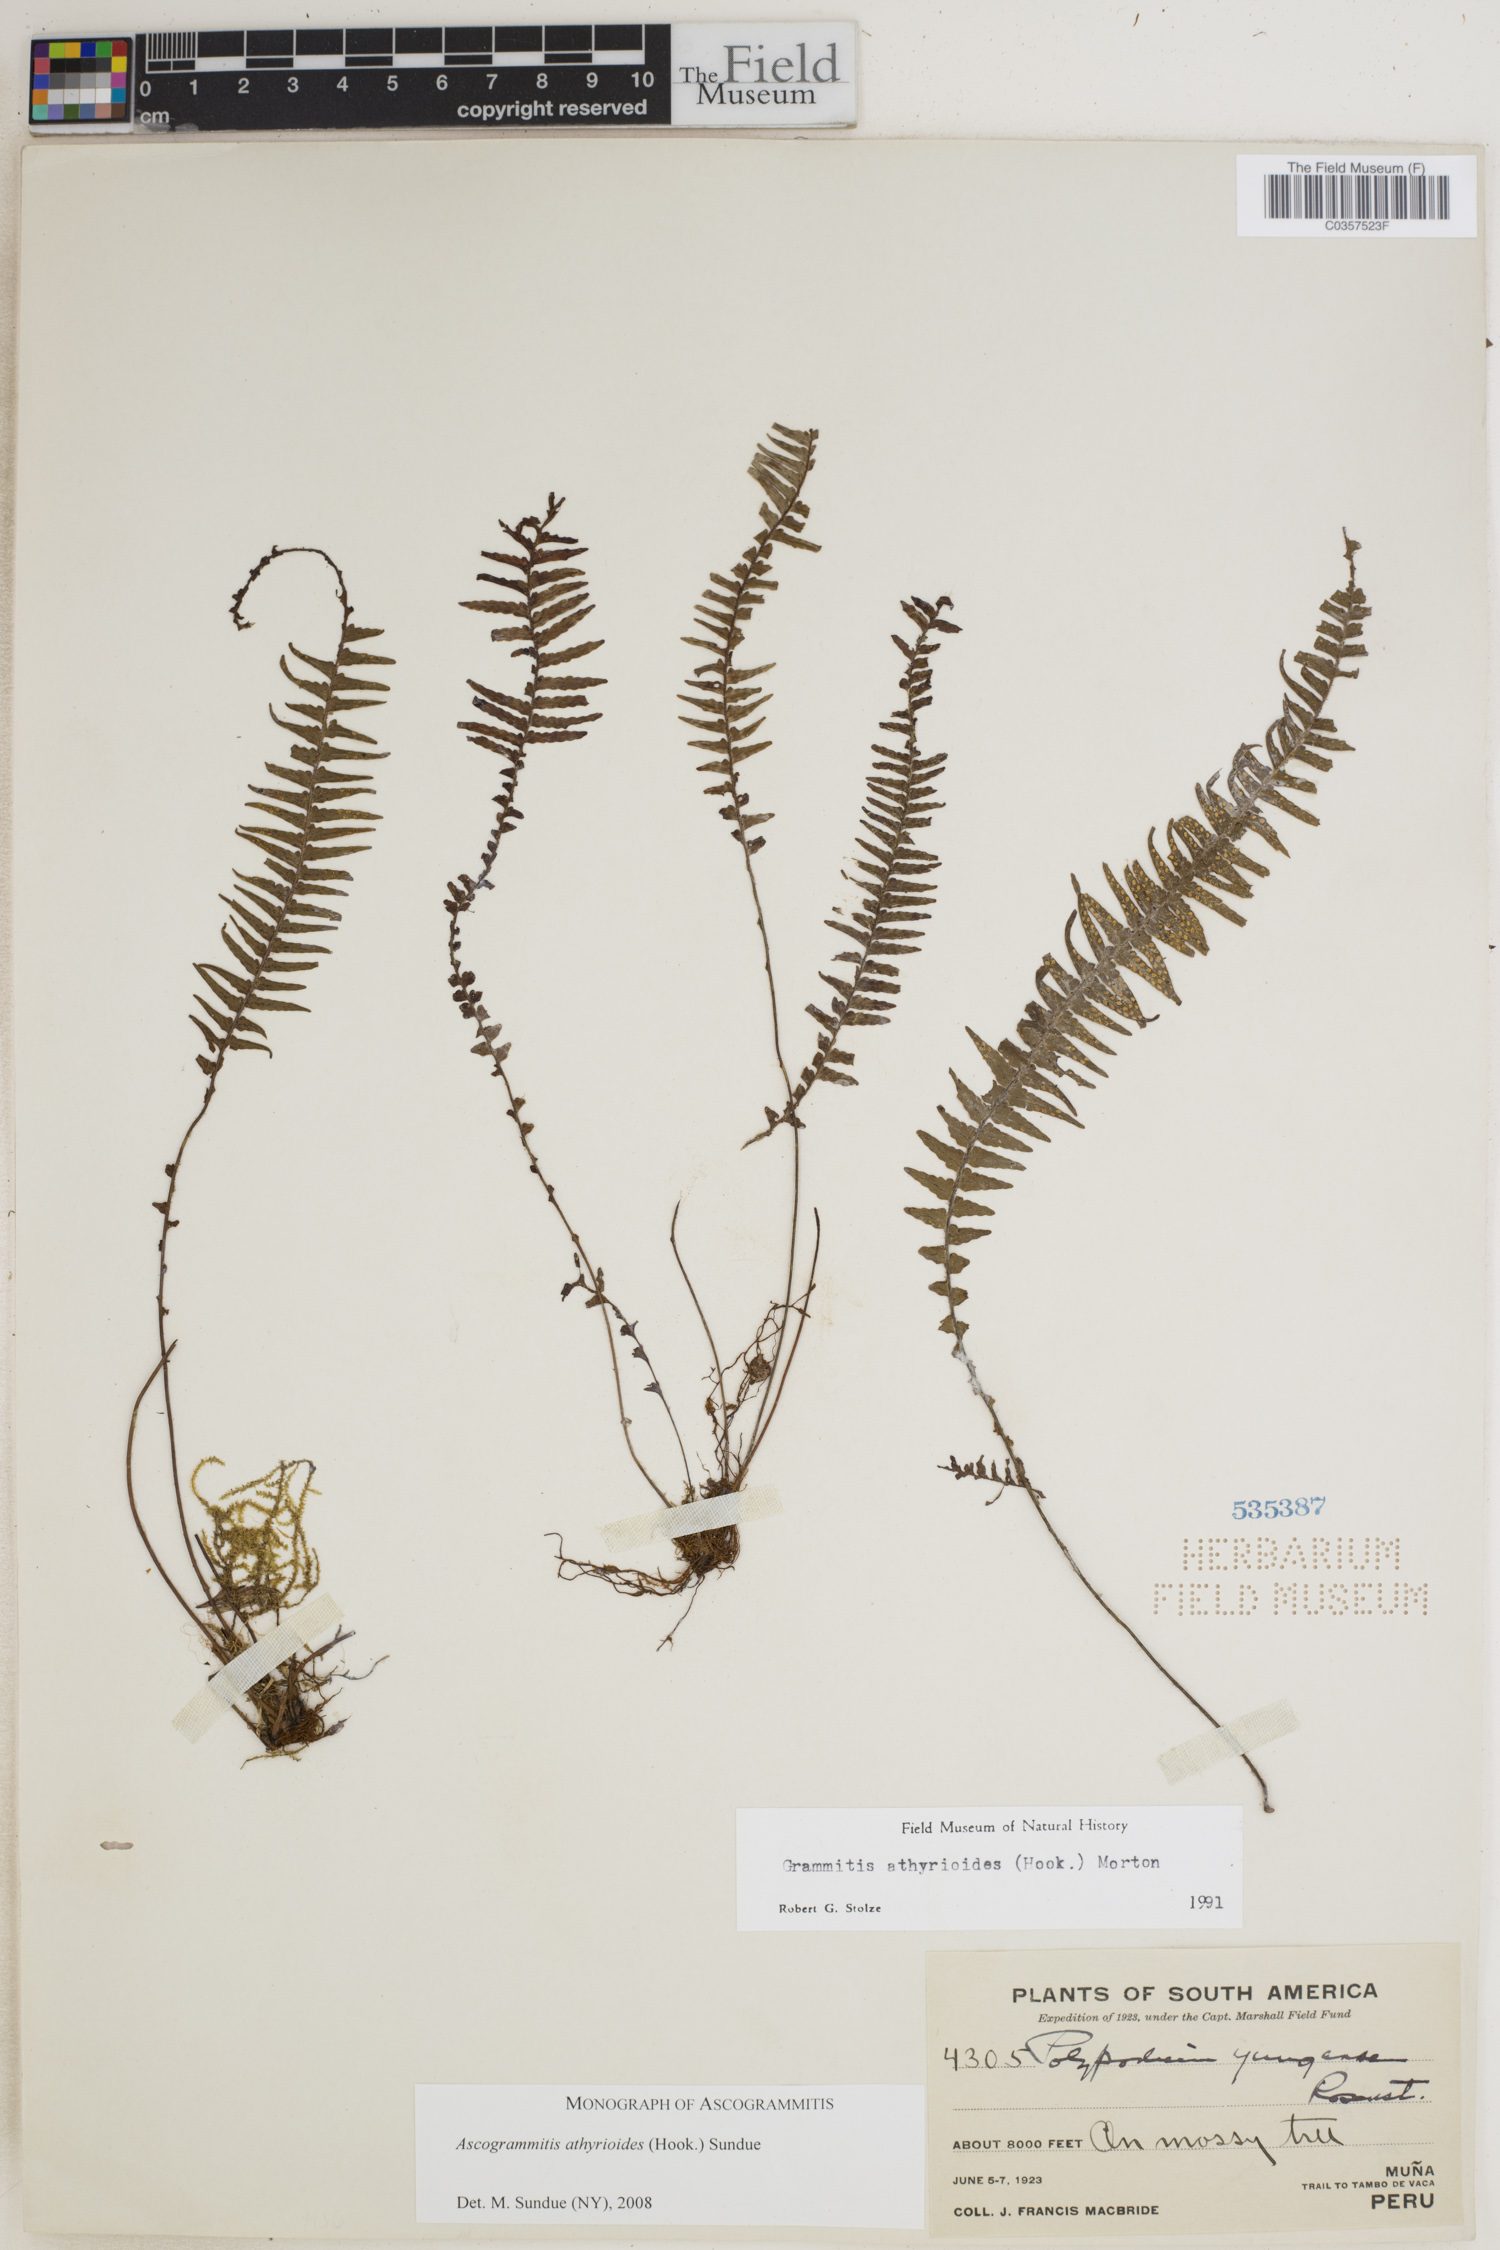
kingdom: Plantae
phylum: Tracheophyta
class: Polypodiopsida
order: Polypodiales
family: Polypodiaceae
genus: Ascogrammitis
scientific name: Ascogrammitis athyrioides
